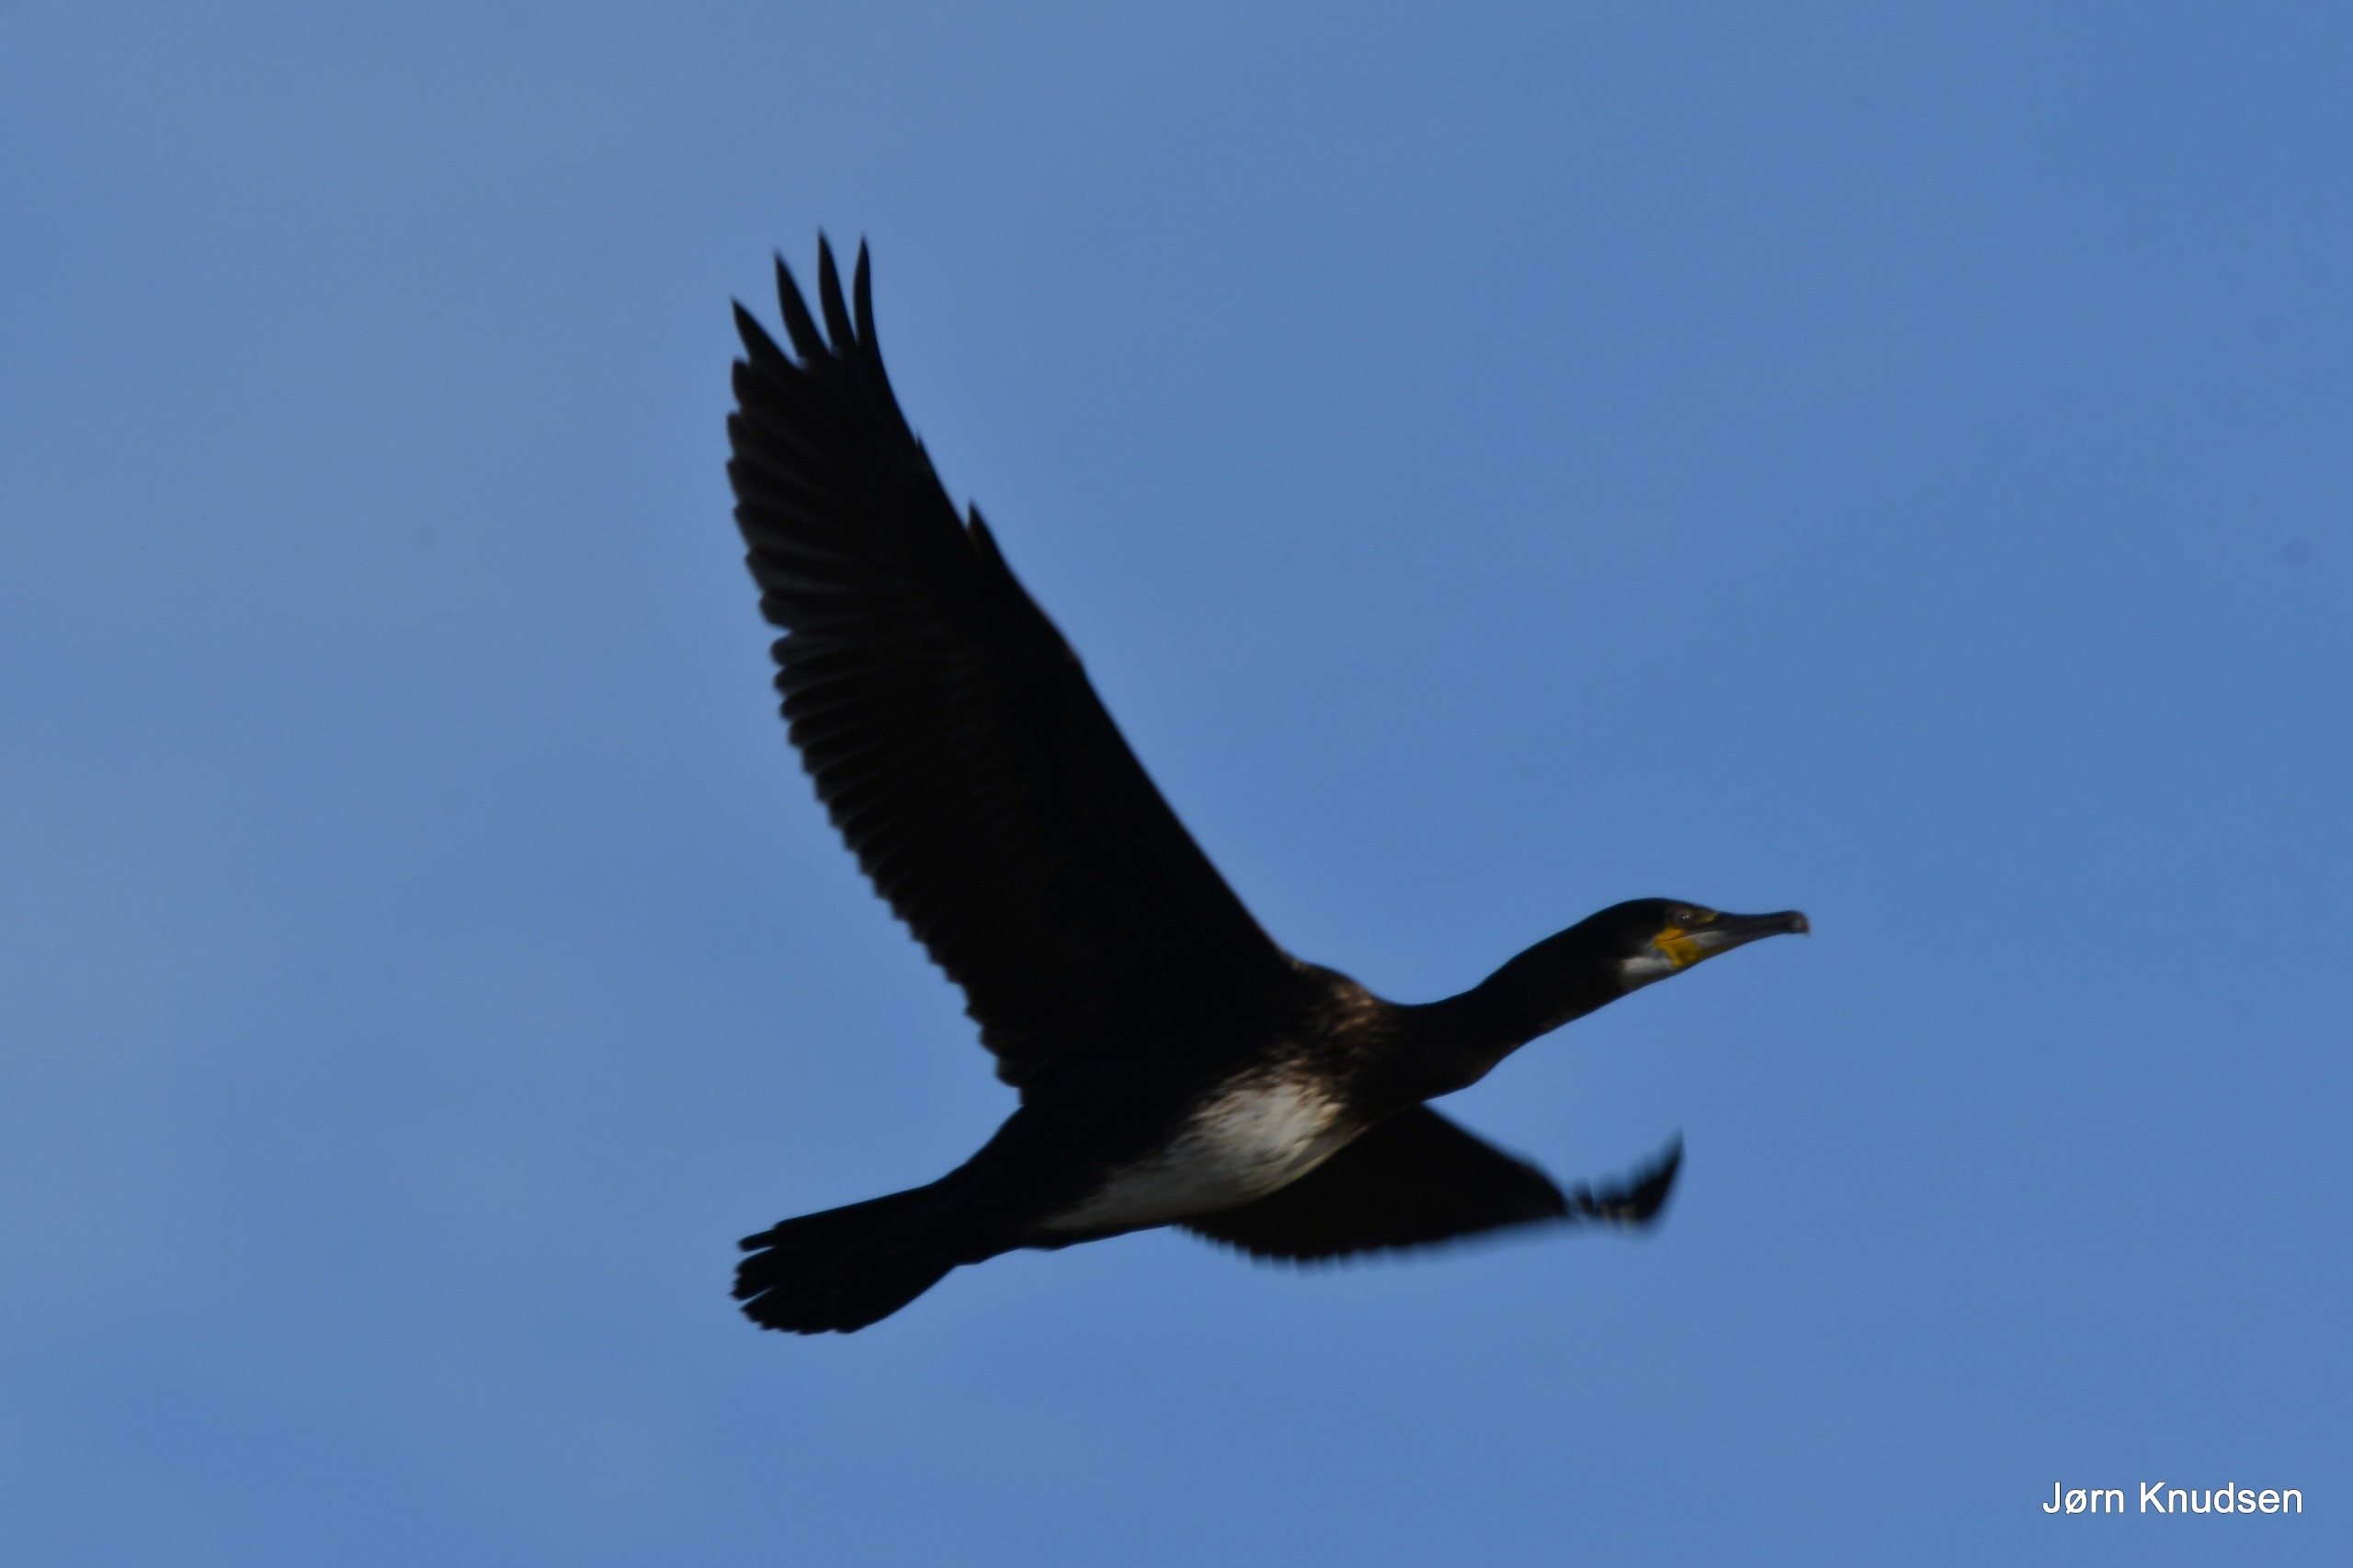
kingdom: Animalia
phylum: Chordata
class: Aves
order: Suliformes
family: Phalacrocoracidae
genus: Phalacrocorax
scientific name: Phalacrocorax carbo
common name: Skarv
